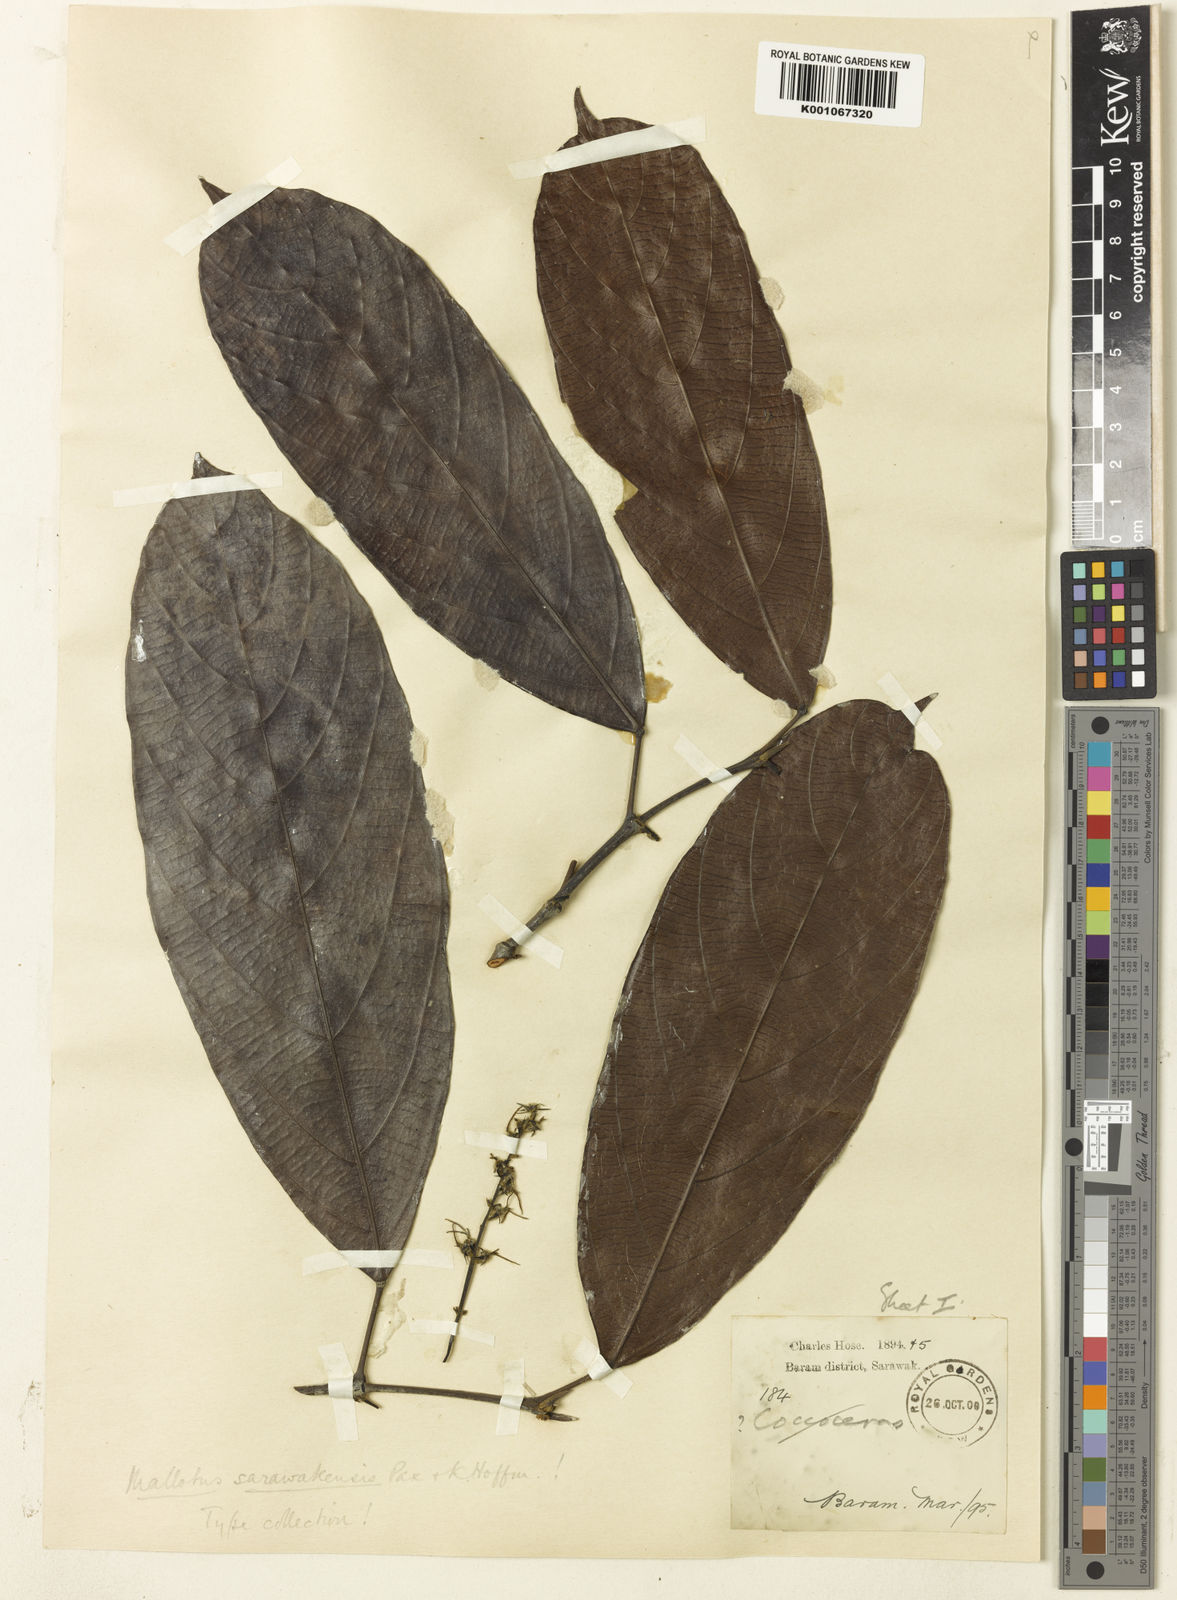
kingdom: Plantae
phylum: Tracheophyta
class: Magnoliopsida
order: Malpighiales
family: Euphorbiaceae
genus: Hancea
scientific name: Hancea penangensis
